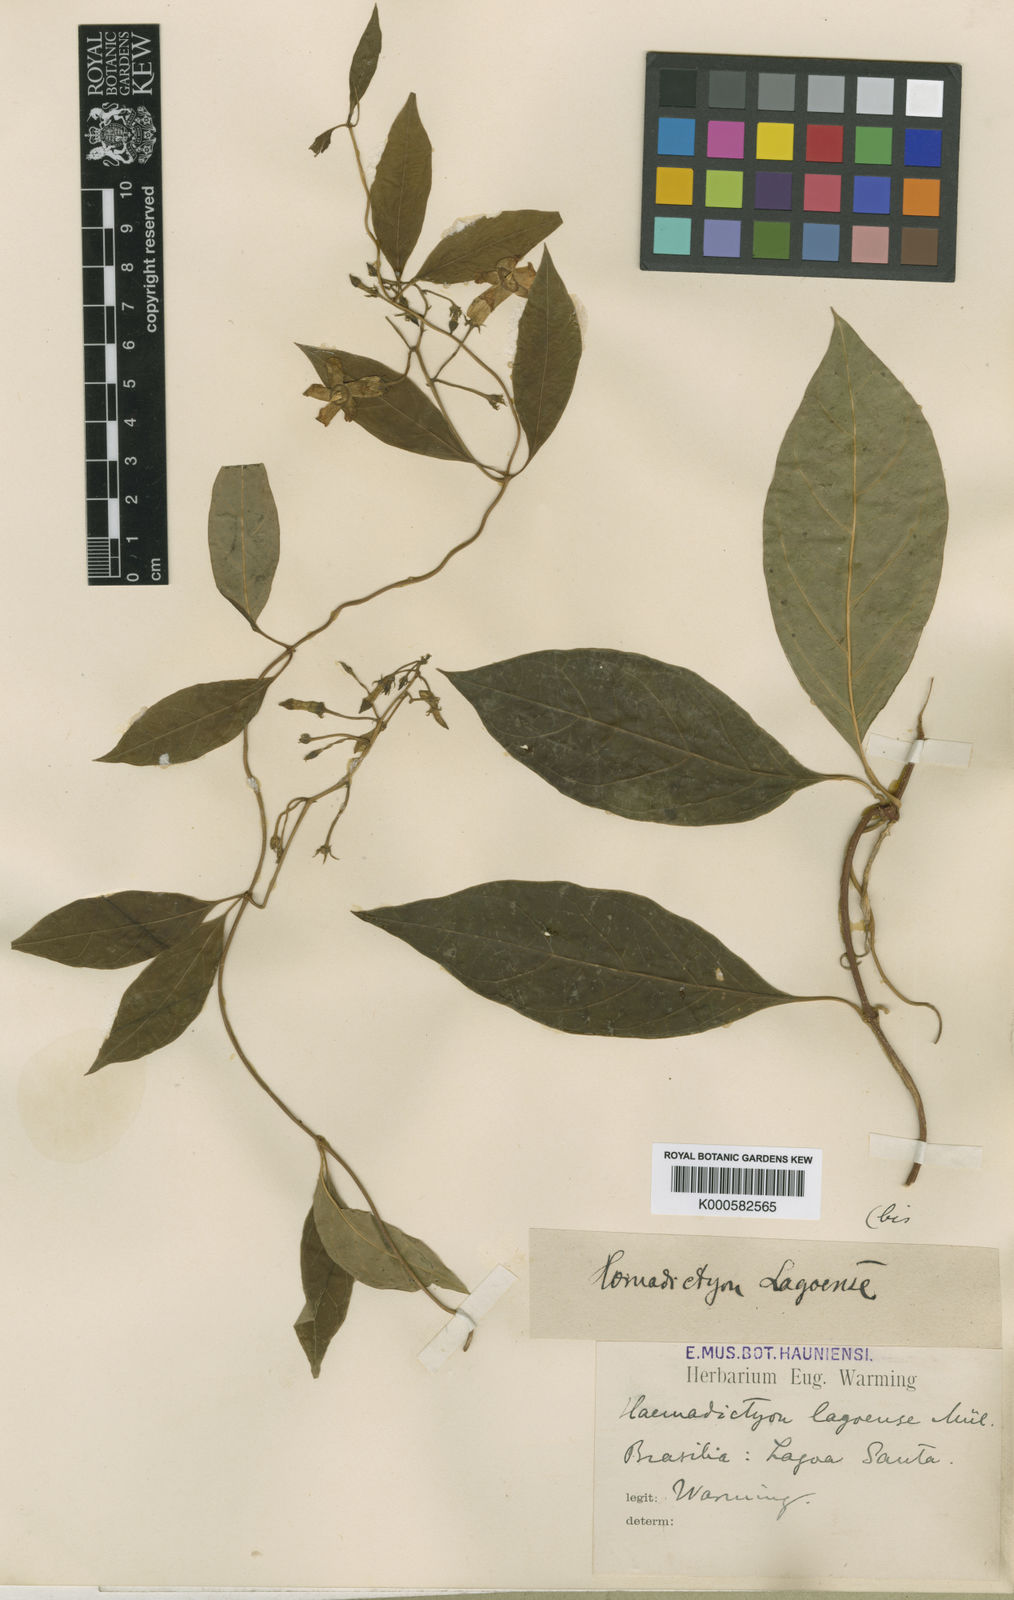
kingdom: Plantae
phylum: Tracheophyta
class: Magnoliopsida
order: Gentianales
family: Apocynaceae
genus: Prestonia
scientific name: Prestonia
